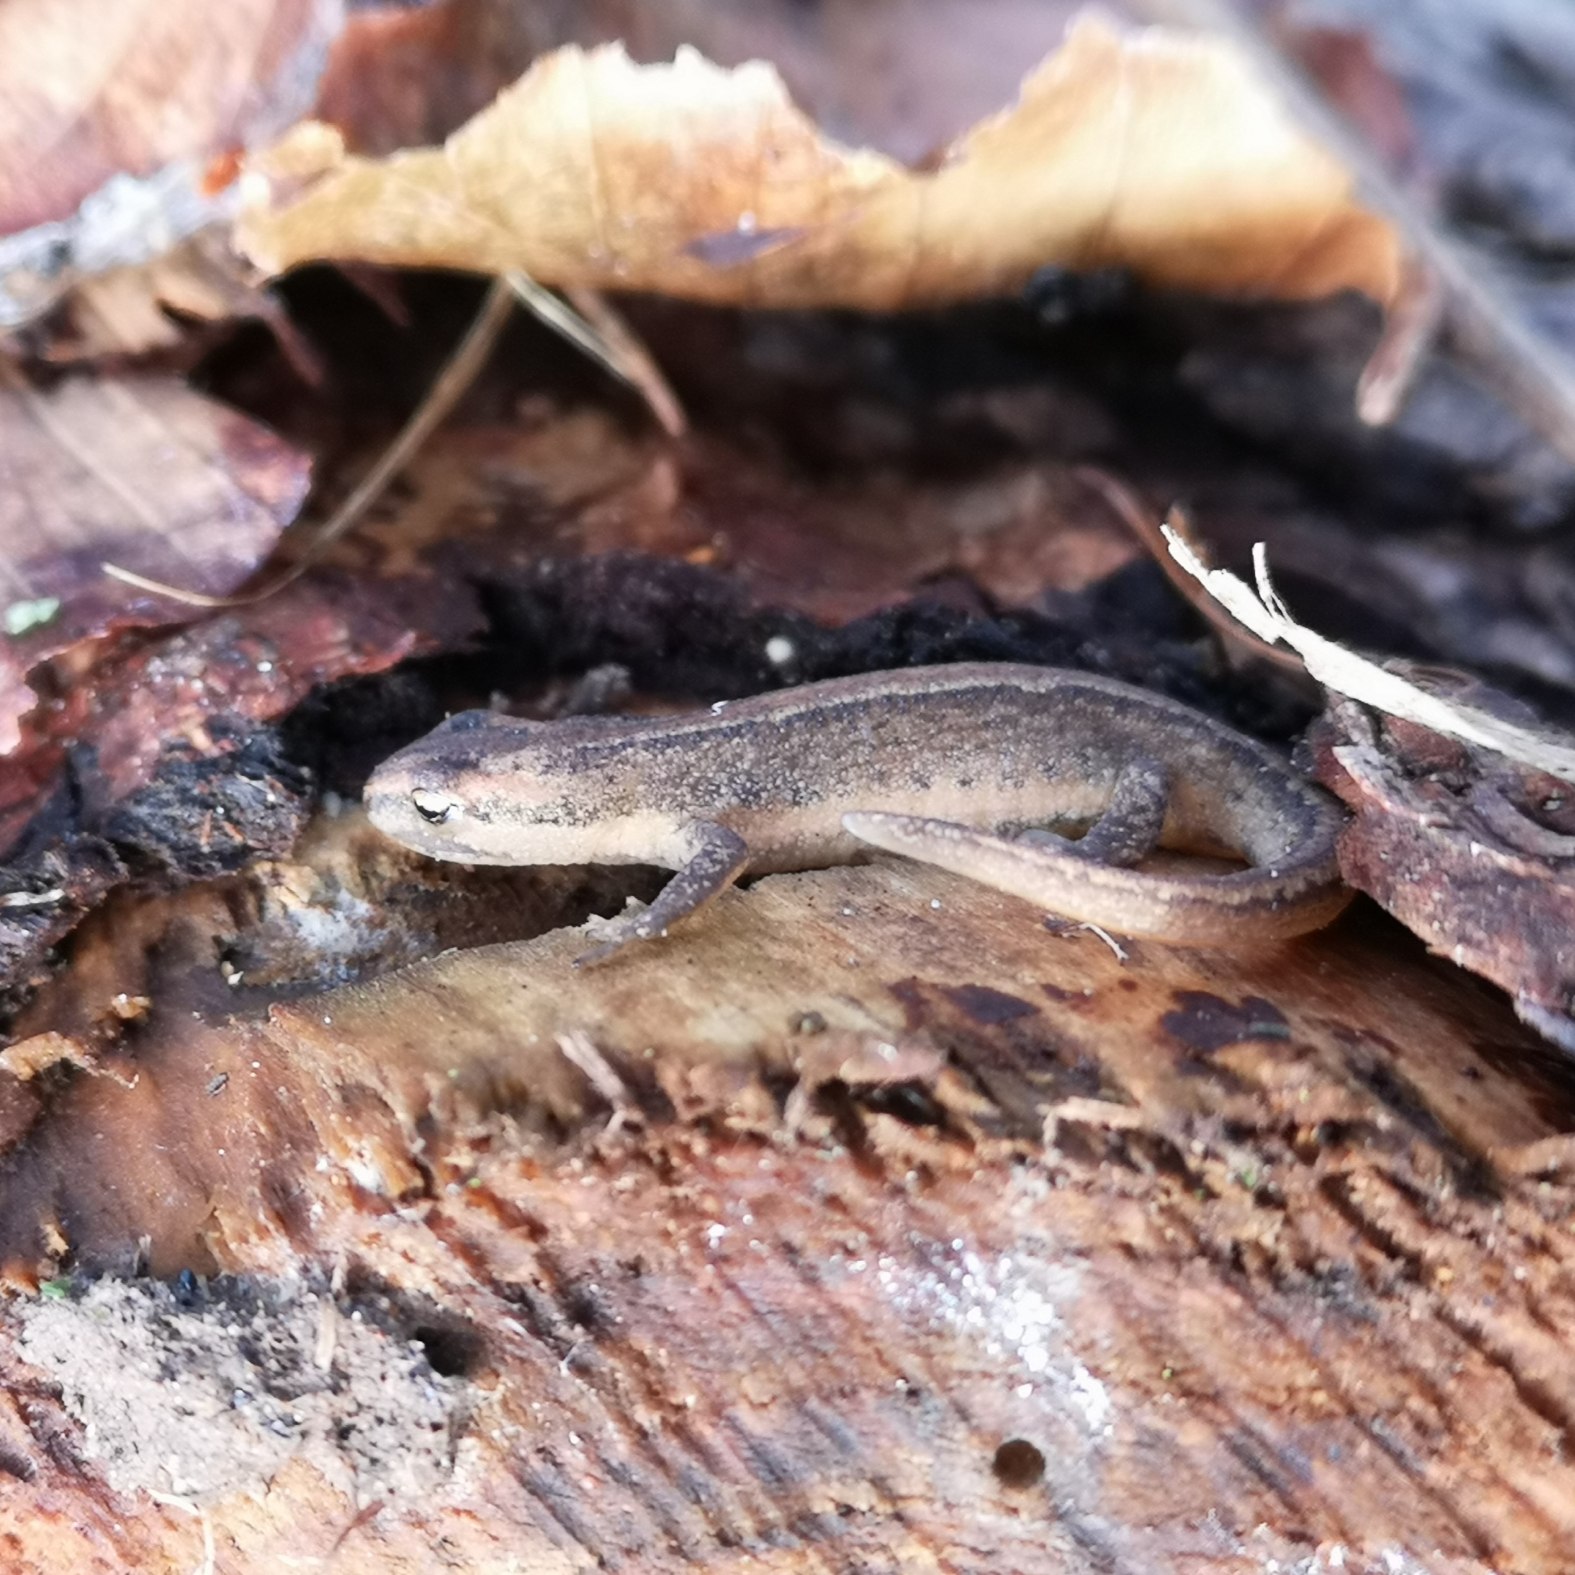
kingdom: Animalia
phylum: Chordata
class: Amphibia
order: Caudata
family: Salamandridae
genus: Lissotriton
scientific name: Lissotriton vulgaris
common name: Lille vandsalamander
